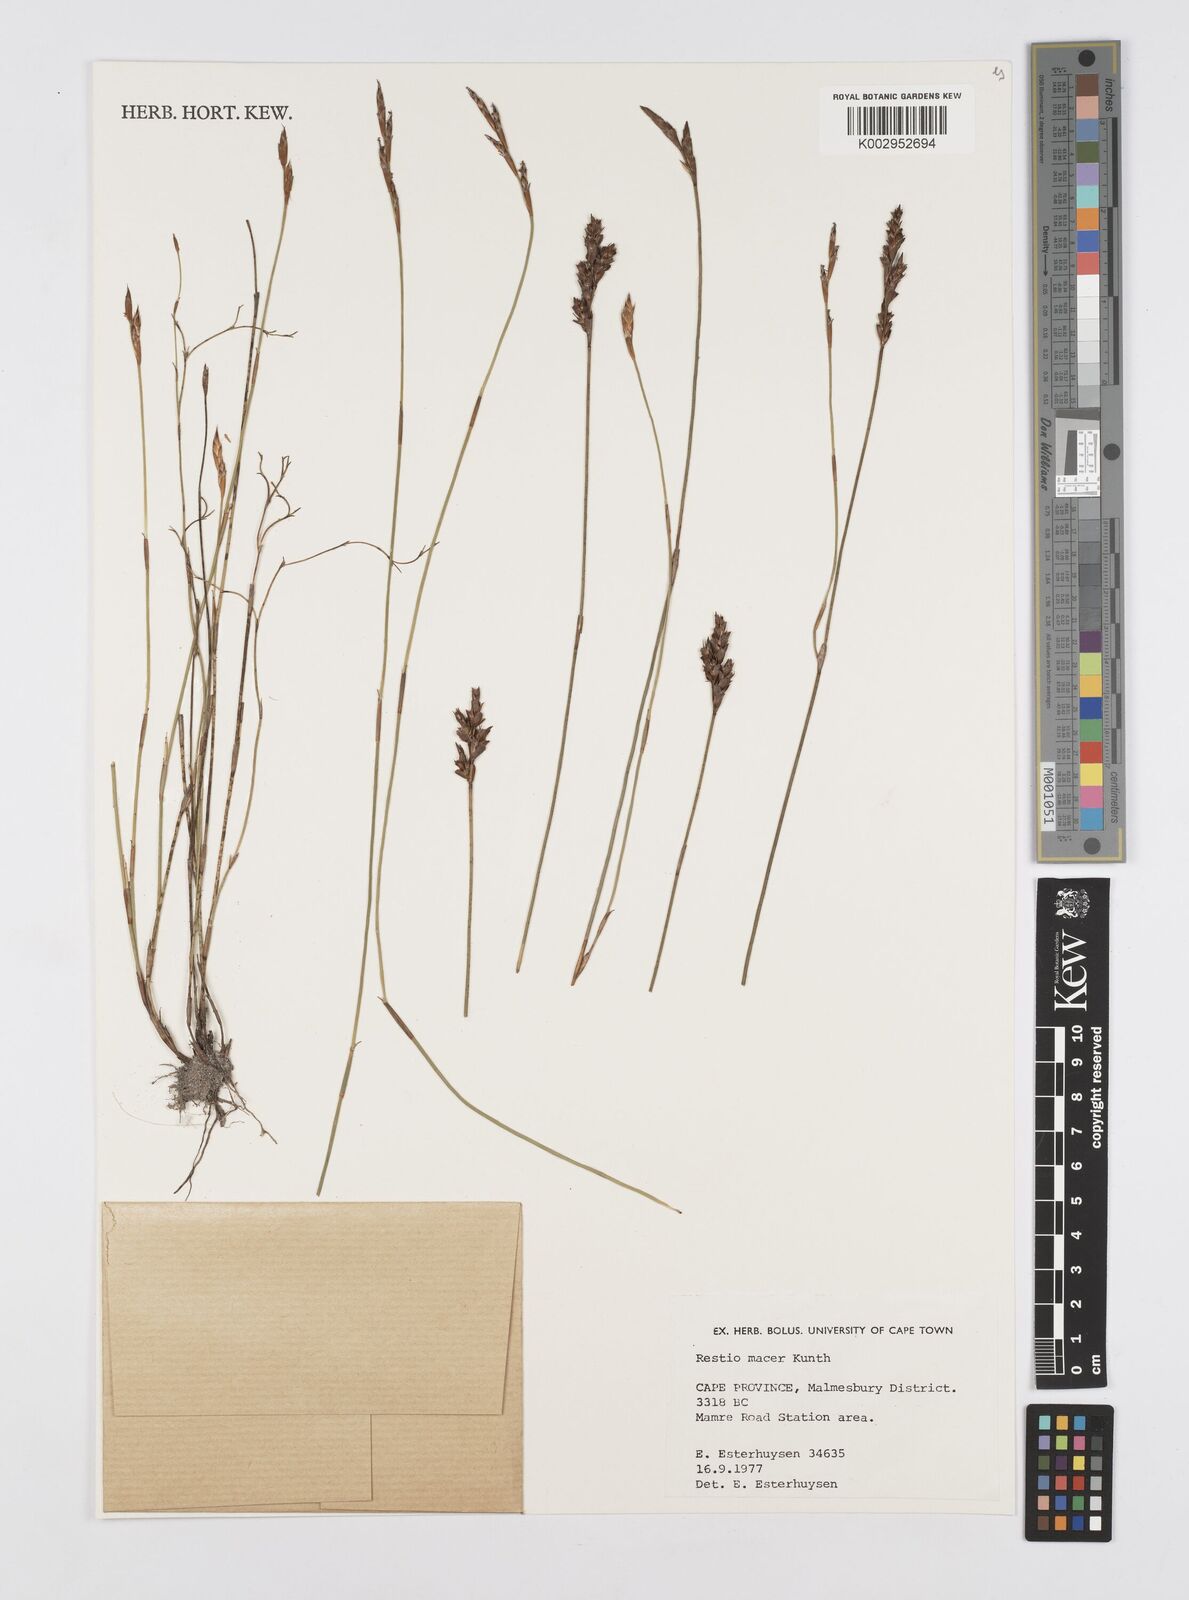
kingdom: Plantae
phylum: Tracheophyta
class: Liliopsida
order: Poales
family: Restionaceae
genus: Restio
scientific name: Restio macer
